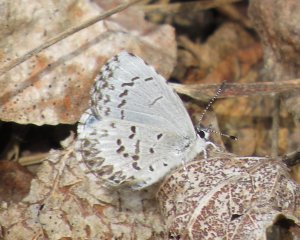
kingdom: Animalia
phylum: Arthropoda
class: Insecta
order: Lepidoptera
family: Lycaenidae
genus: Celastrina
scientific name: Celastrina lucia
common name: Northern Spring Azure
